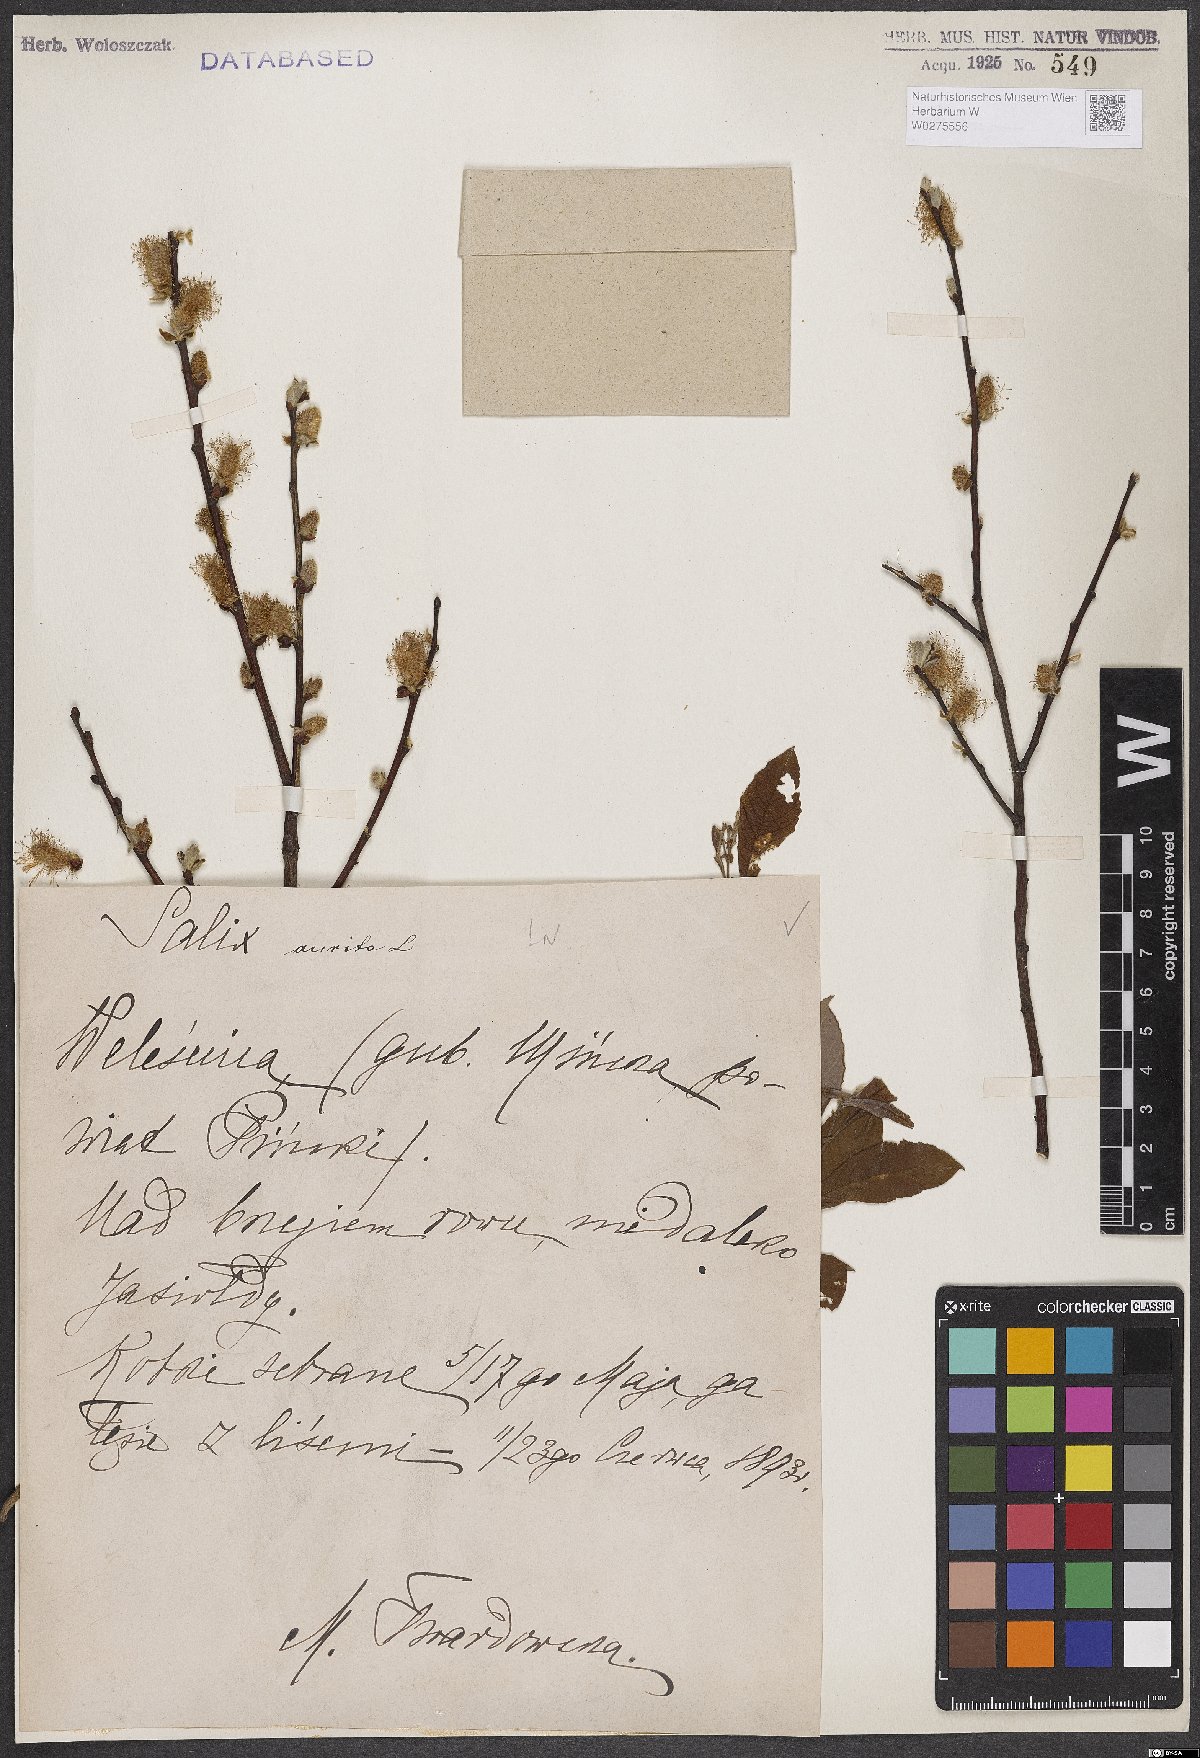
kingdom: Plantae
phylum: Tracheophyta
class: Magnoliopsida
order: Malpighiales
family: Salicaceae
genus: Salix
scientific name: Salix aurita
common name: Eared willow
